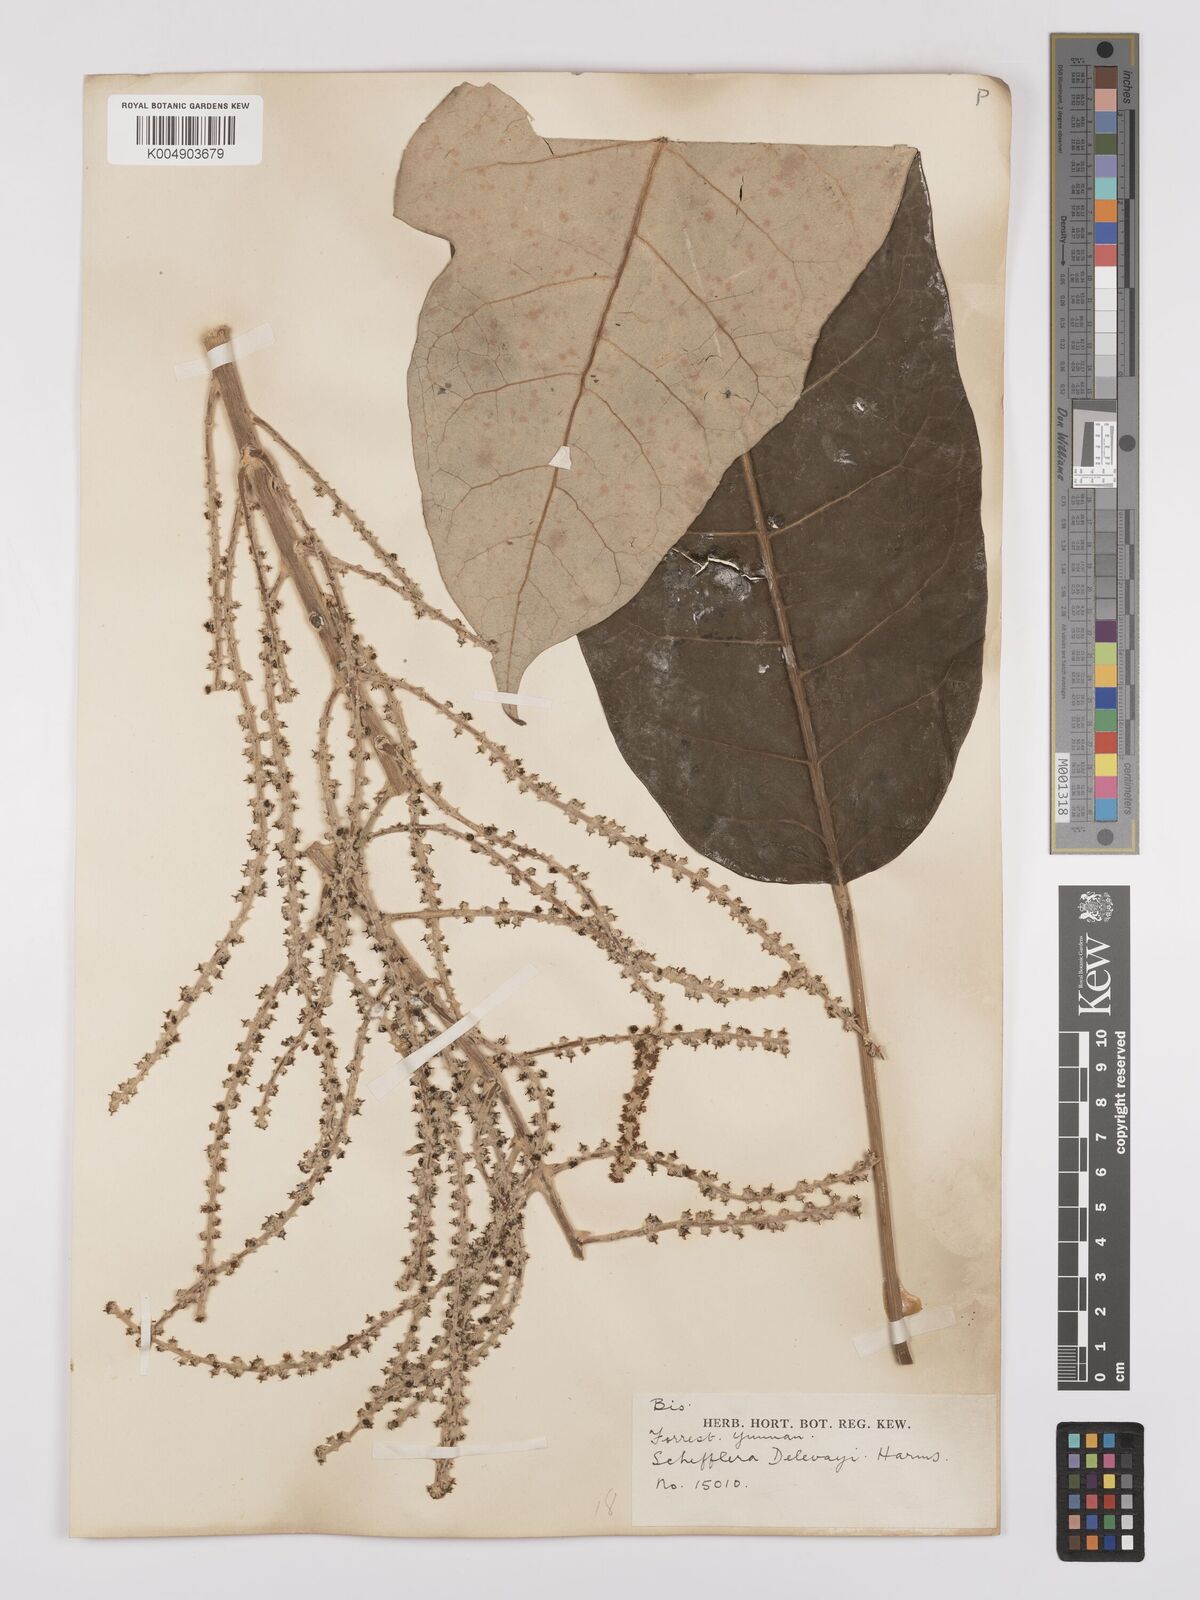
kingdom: Plantae
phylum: Tracheophyta
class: Magnoliopsida
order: Apiales
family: Araliaceae
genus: Heptapleurum
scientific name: Heptapleurum delavayi
